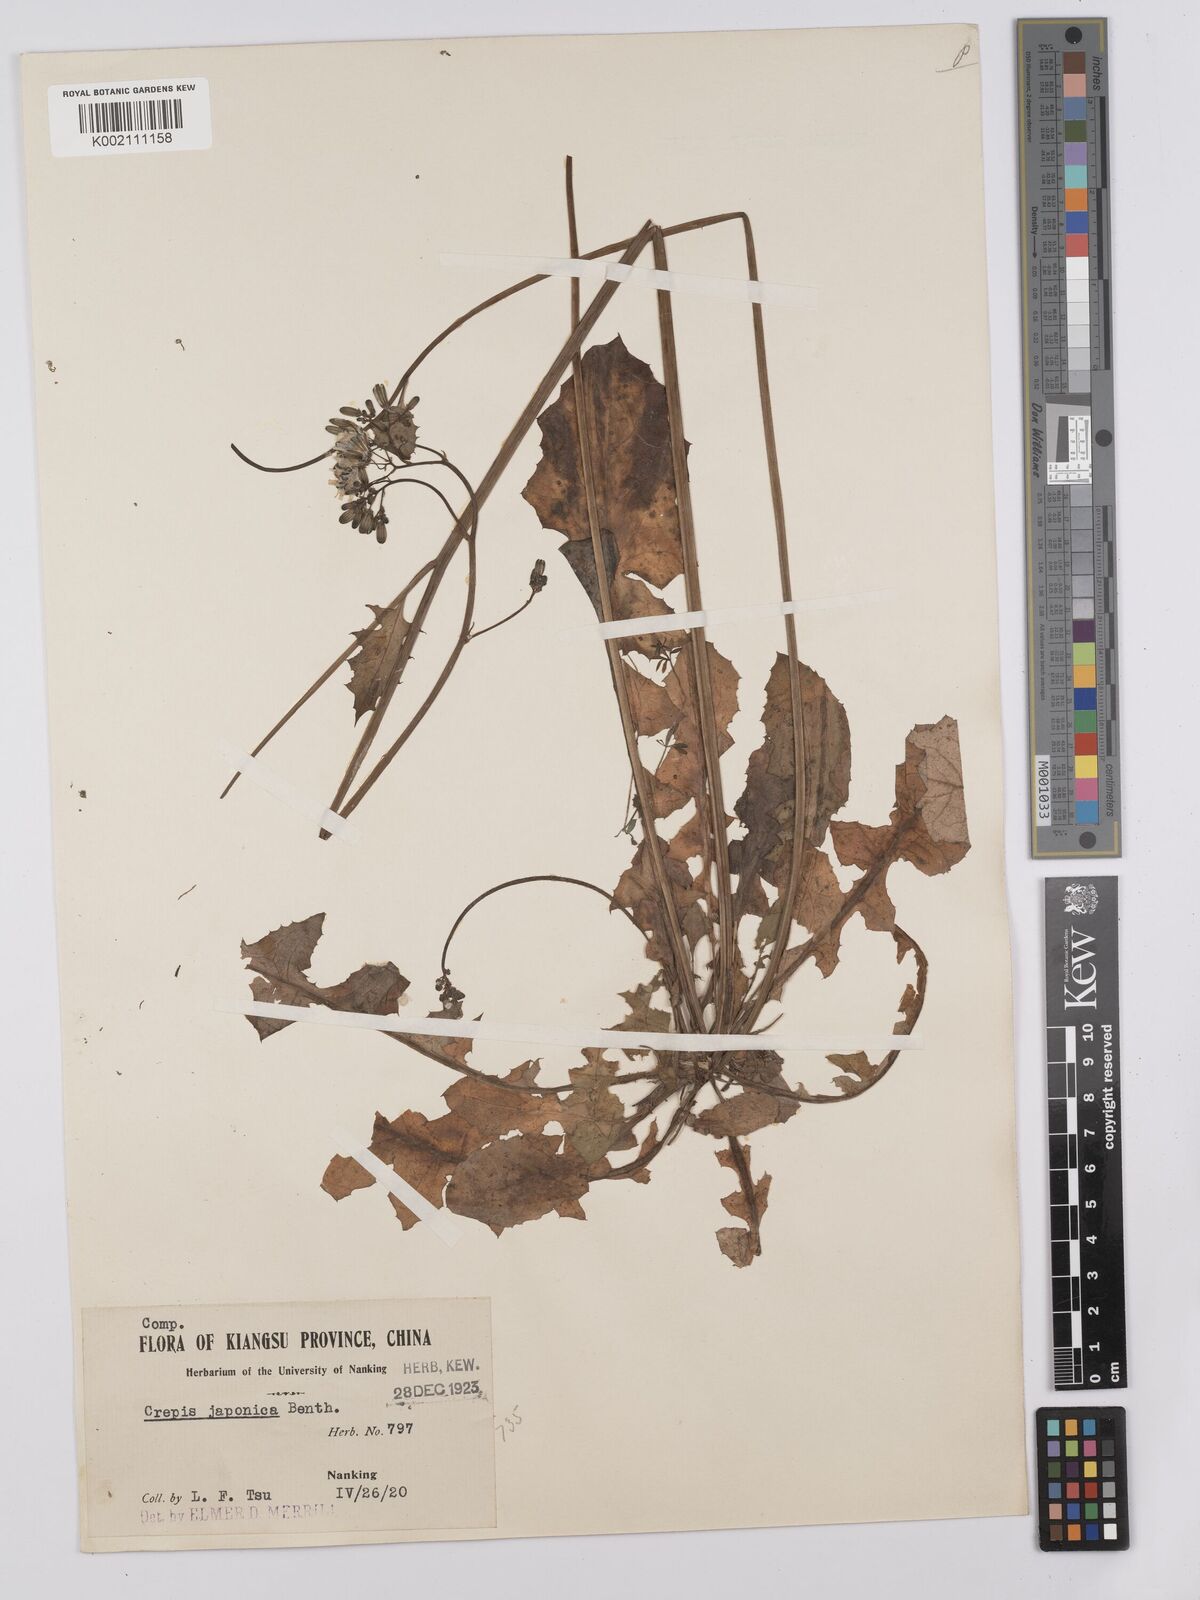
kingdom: Plantae
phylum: Tracheophyta
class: Magnoliopsida
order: Asterales
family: Asteraceae
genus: Youngia
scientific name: Youngia japonica
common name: Oriental false hawksbeard
